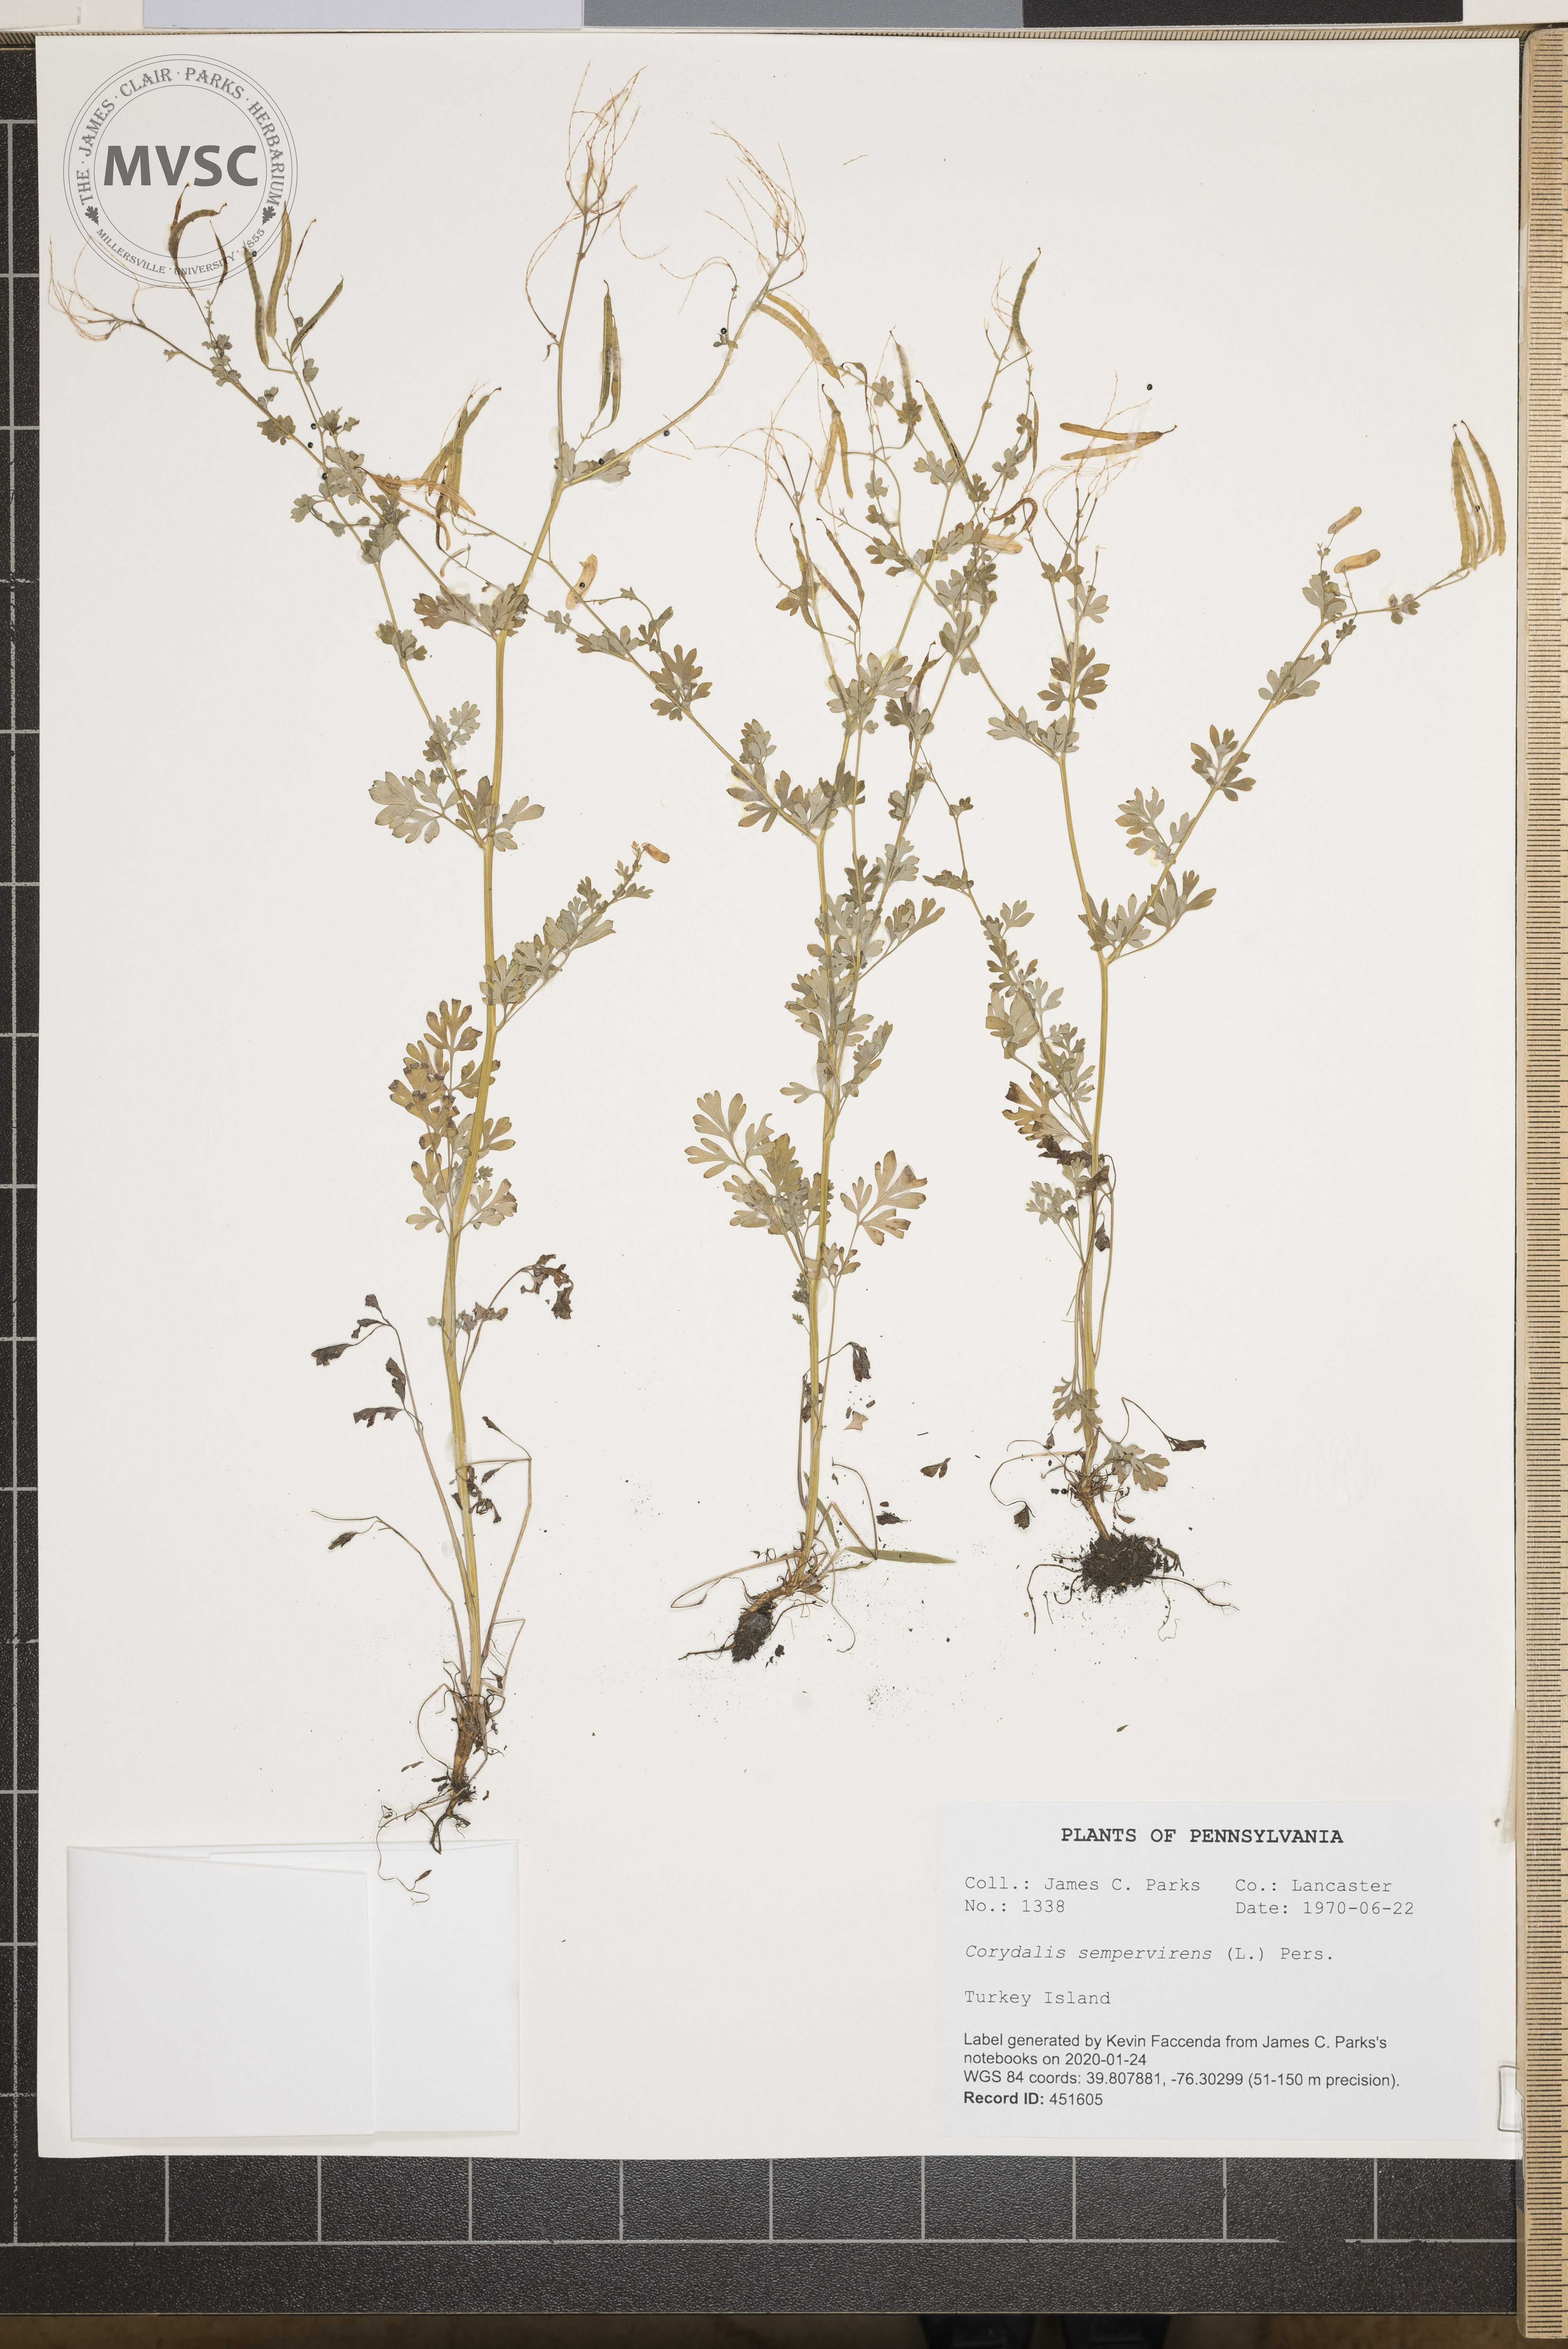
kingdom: Plantae
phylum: Tracheophyta
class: Magnoliopsida
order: Ranunculales
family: Papaveraceae
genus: Capnoides
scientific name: Capnoides sempervirens
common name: Rock harlequin
